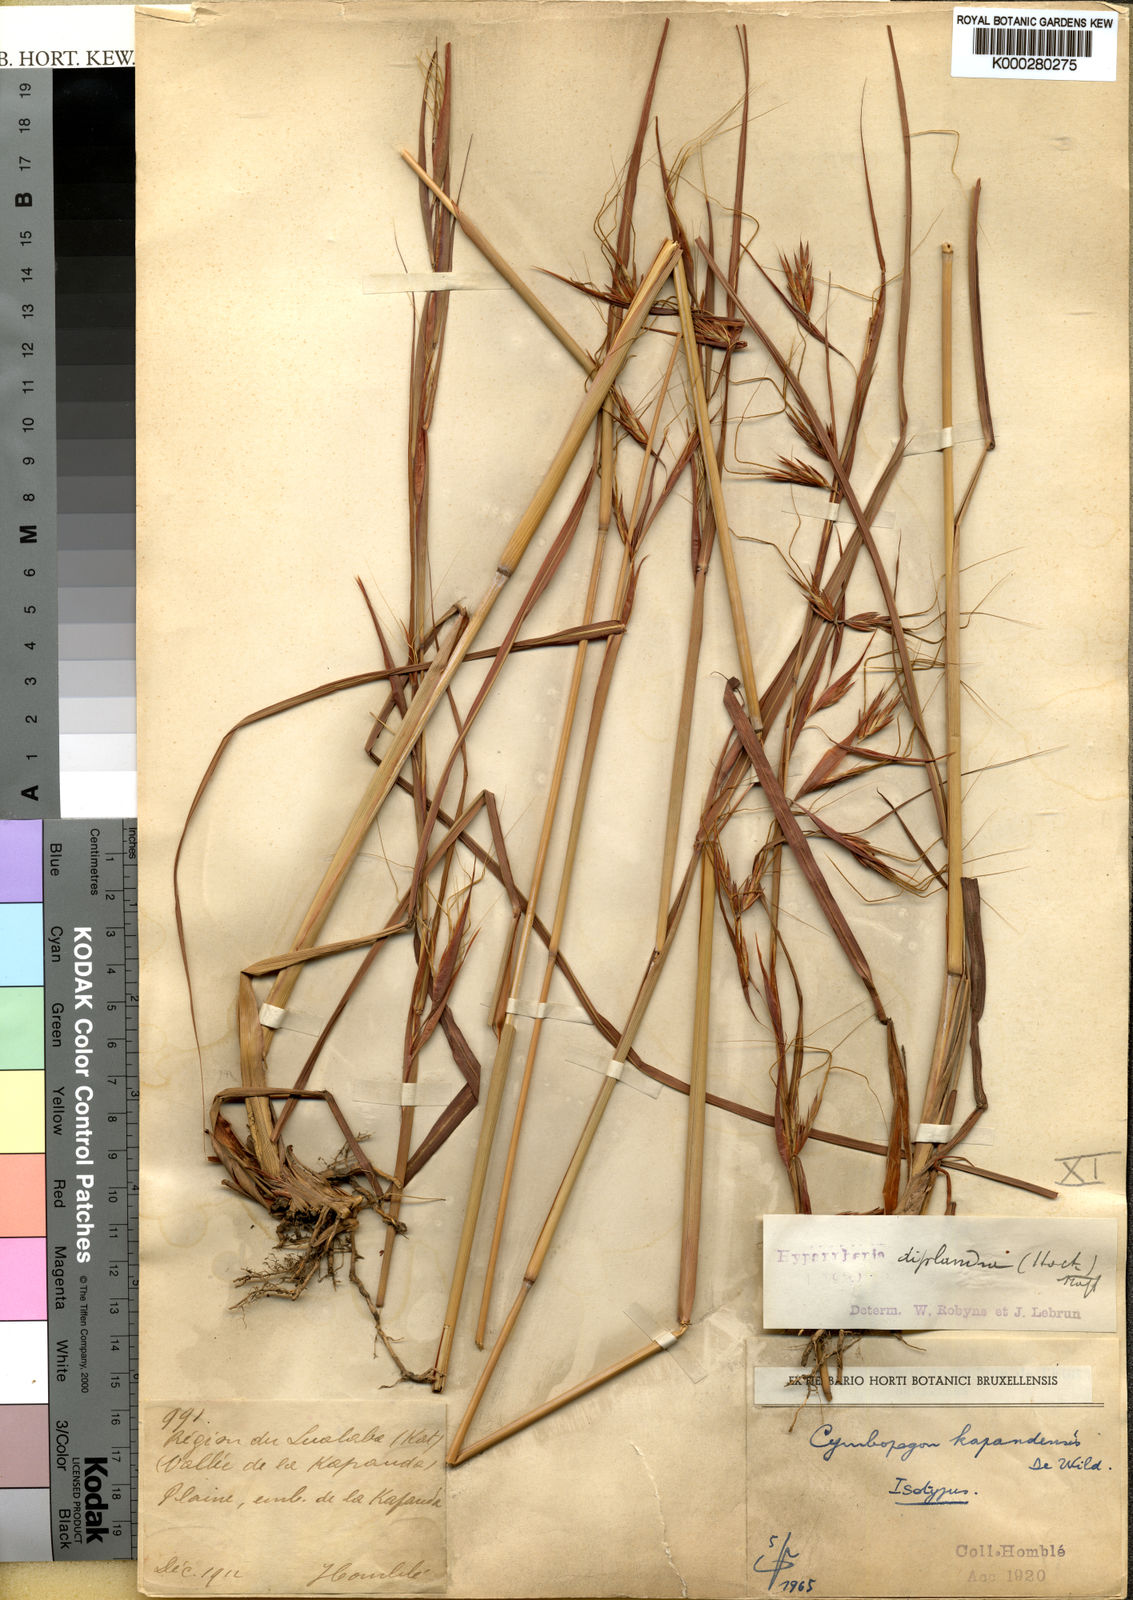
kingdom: Plantae
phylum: Tracheophyta
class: Liliopsida
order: Poales
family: Poaceae
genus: Hyparrhenia
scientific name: Hyparrhenia diplandra
